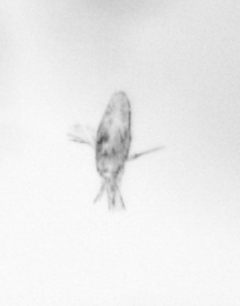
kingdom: Animalia
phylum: Arthropoda
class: Copepoda
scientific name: Copepoda
